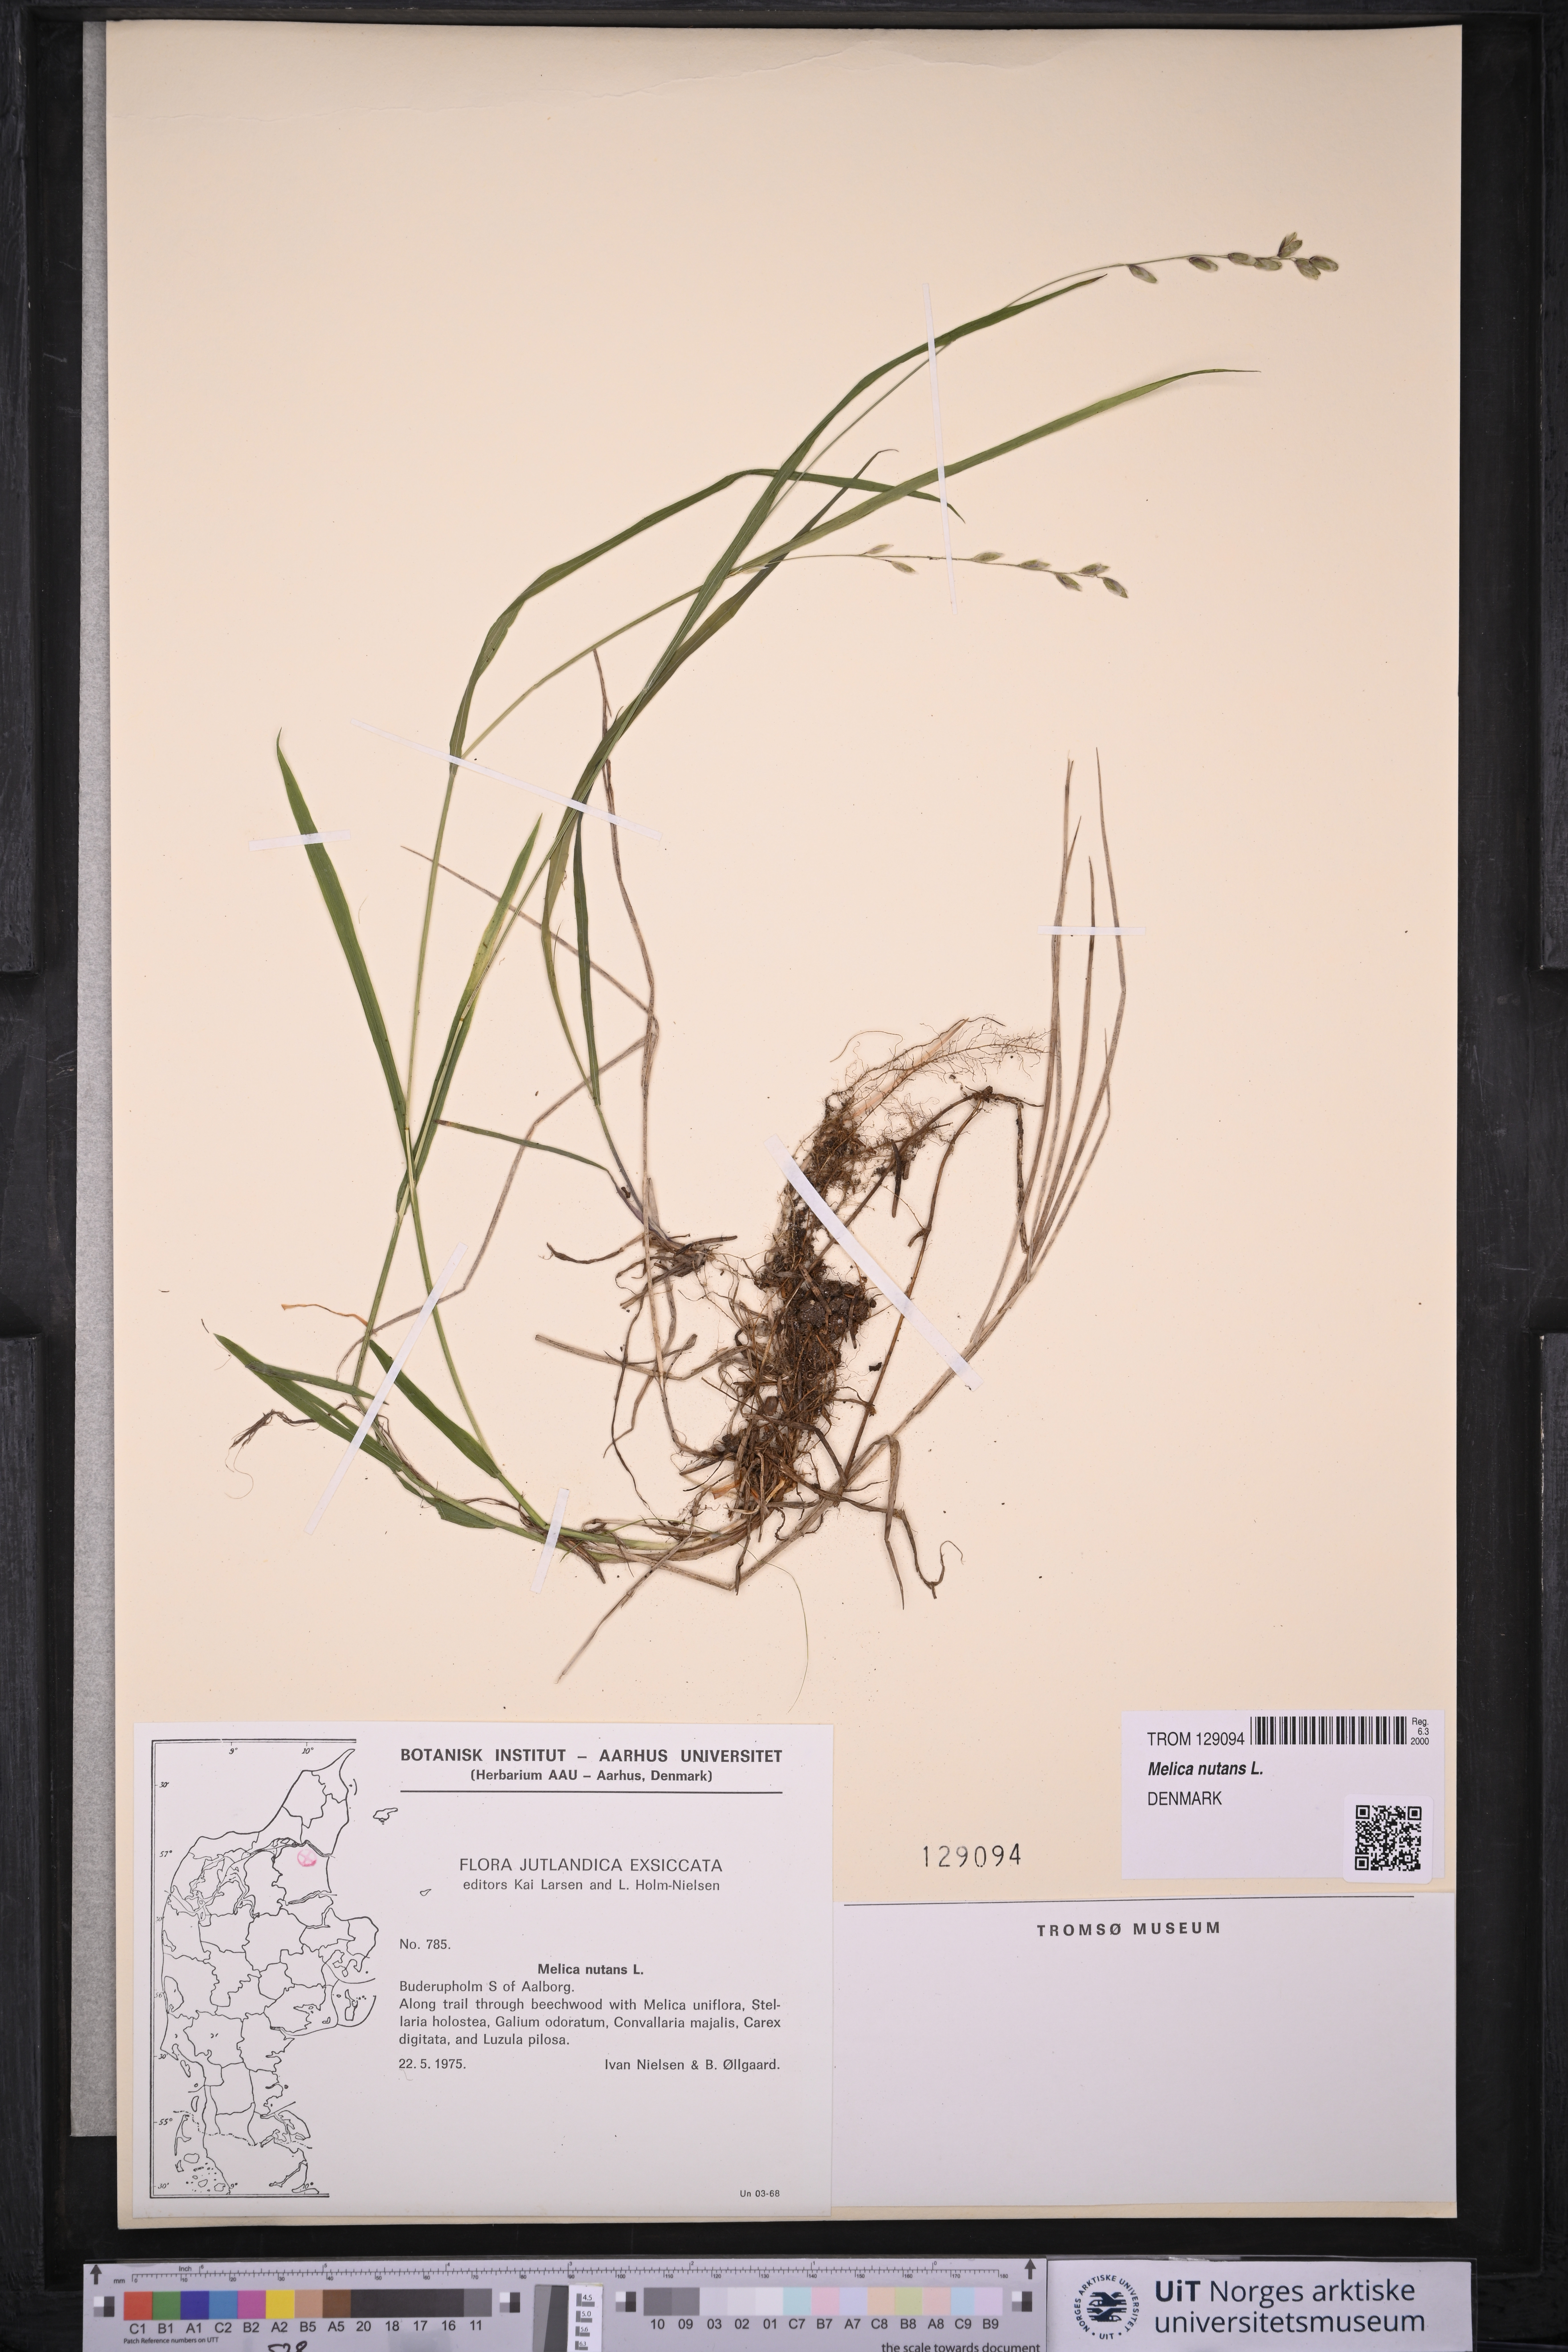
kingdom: Plantae
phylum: Tracheophyta
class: Liliopsida
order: Poales
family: Poaceae
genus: Melica
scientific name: Melica nutans
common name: Mountain melick
